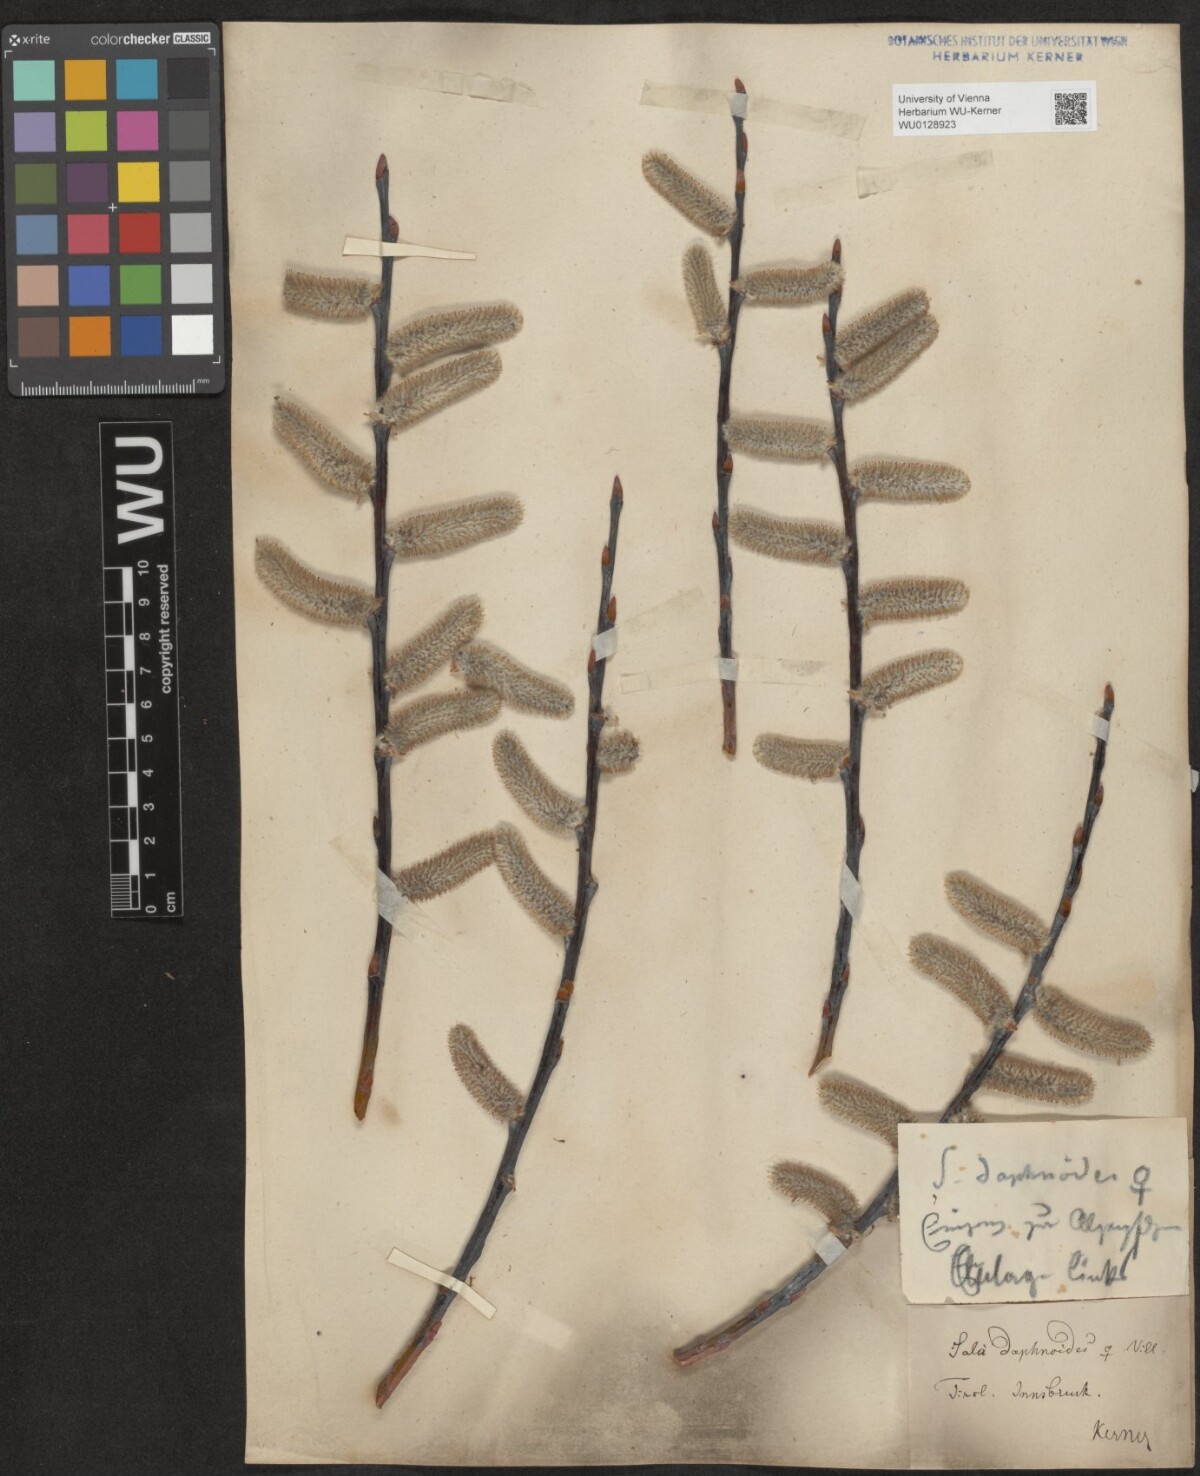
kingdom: Plantae
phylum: Tracheophyta
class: Magnoliopsida
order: Malpighiales
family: Salicaceae
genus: Salix
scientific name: Salix daphnoides
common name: European violet-willow
